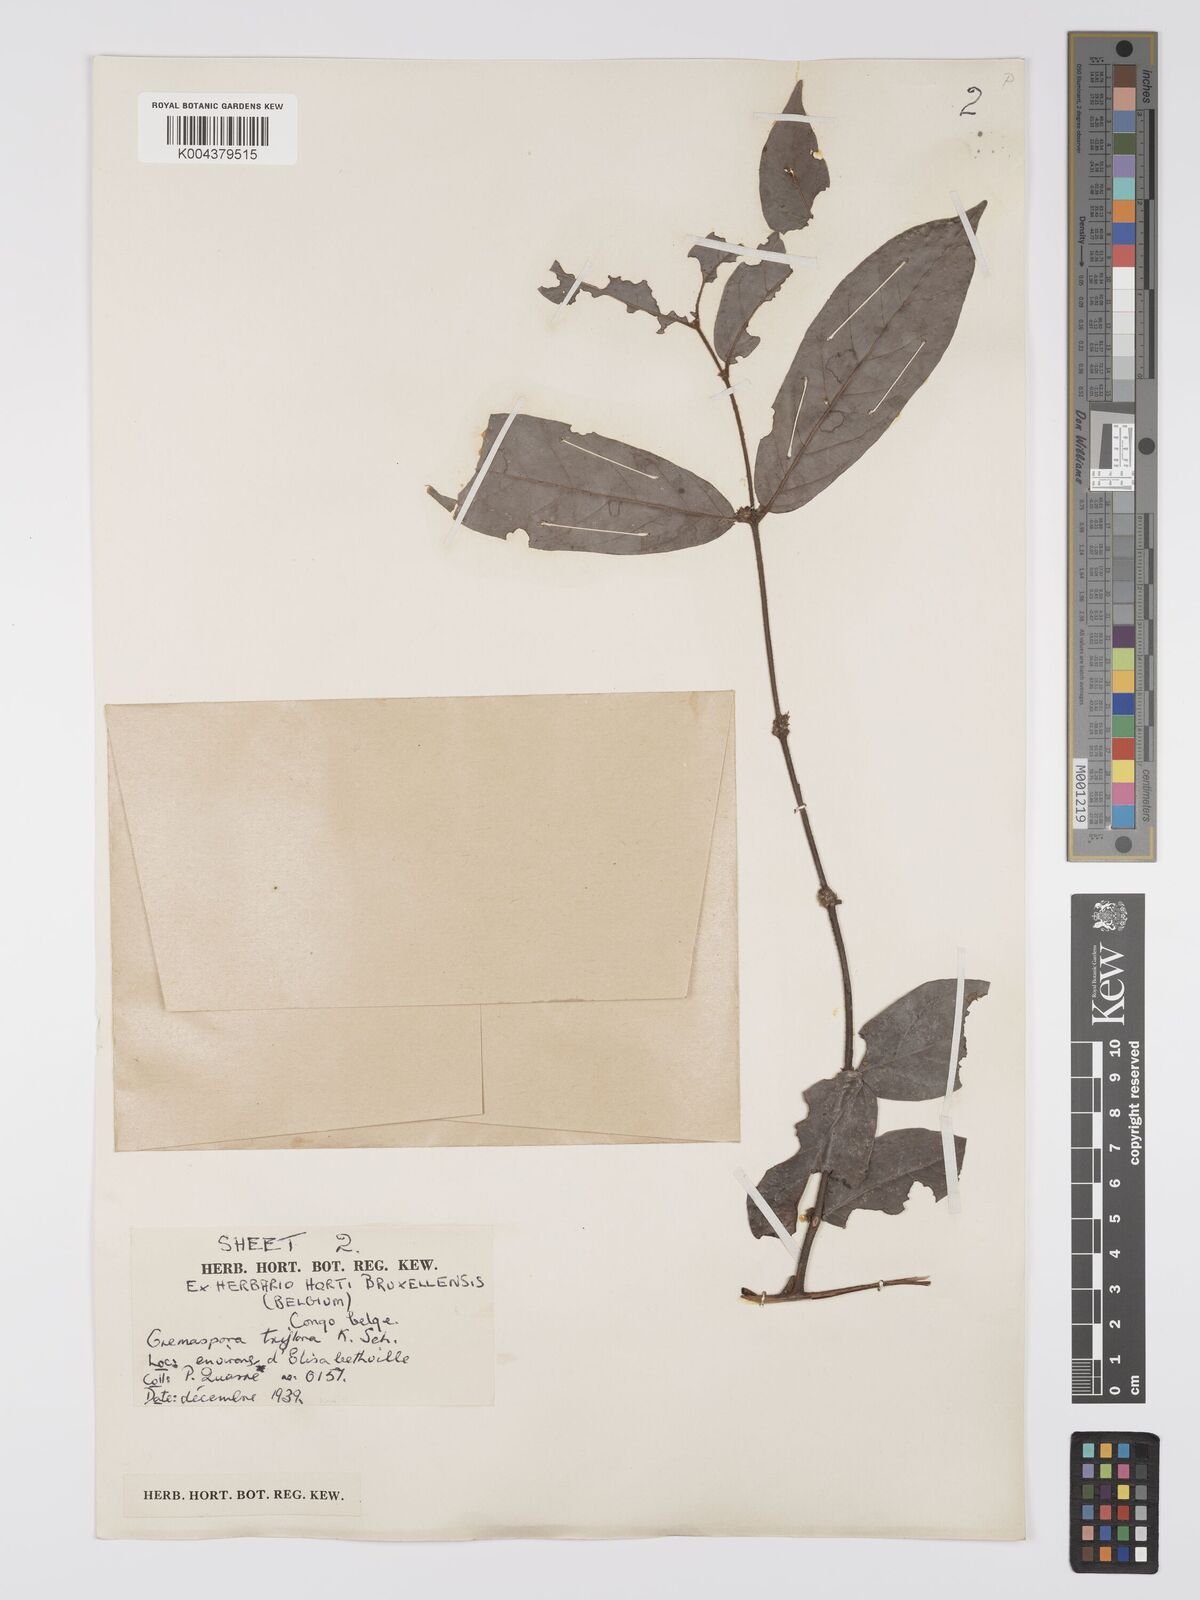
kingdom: Plantae
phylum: Tracheophyta
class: Magnoliopsida
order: Gentianales
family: Rubiaceae
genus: Cremaspora
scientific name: Cremaspora triflora
